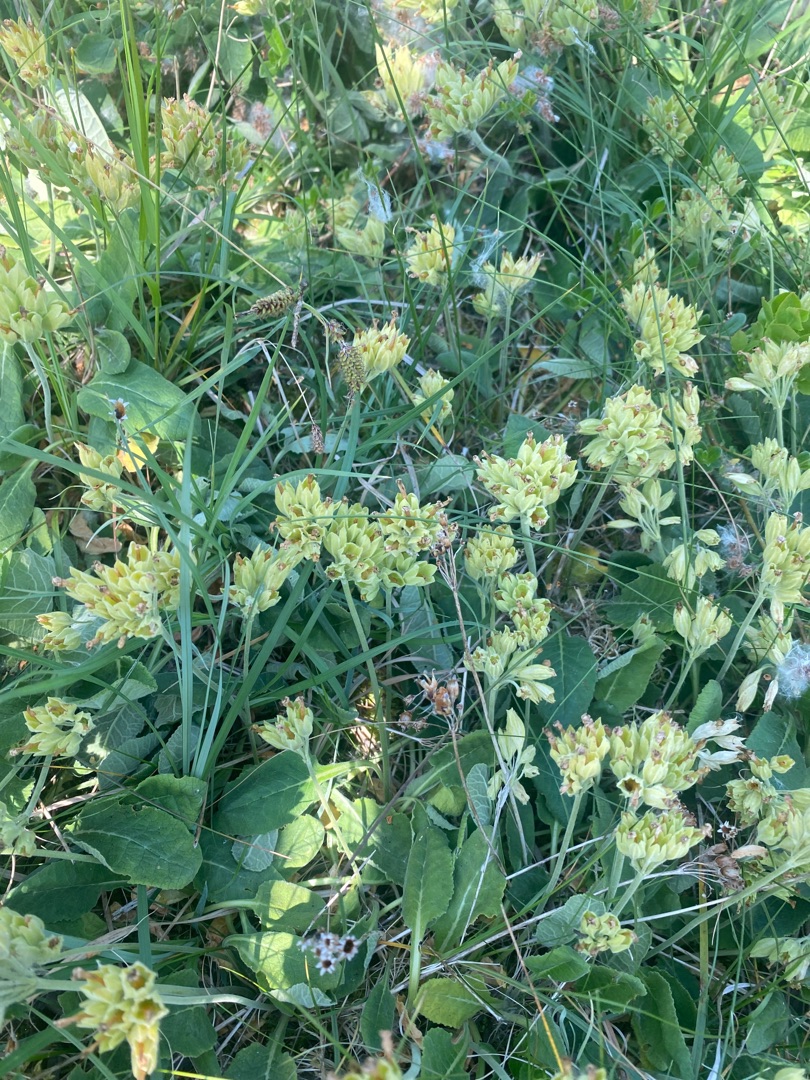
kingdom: Plantae
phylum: Tracheophyta
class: Magnoliopsida
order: Ericales
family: Primulaceae
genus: Primula
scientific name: Primula veris
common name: Hulkravet kodriver
